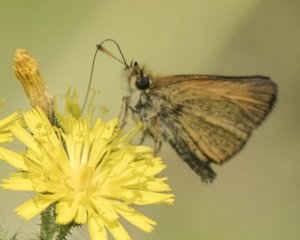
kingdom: Animalia
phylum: Arthropoda
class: Insecta
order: Lepidoptera
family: Hesperiidae
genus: Thymelicus
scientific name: Thymelicus lineola
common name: European Skipper
